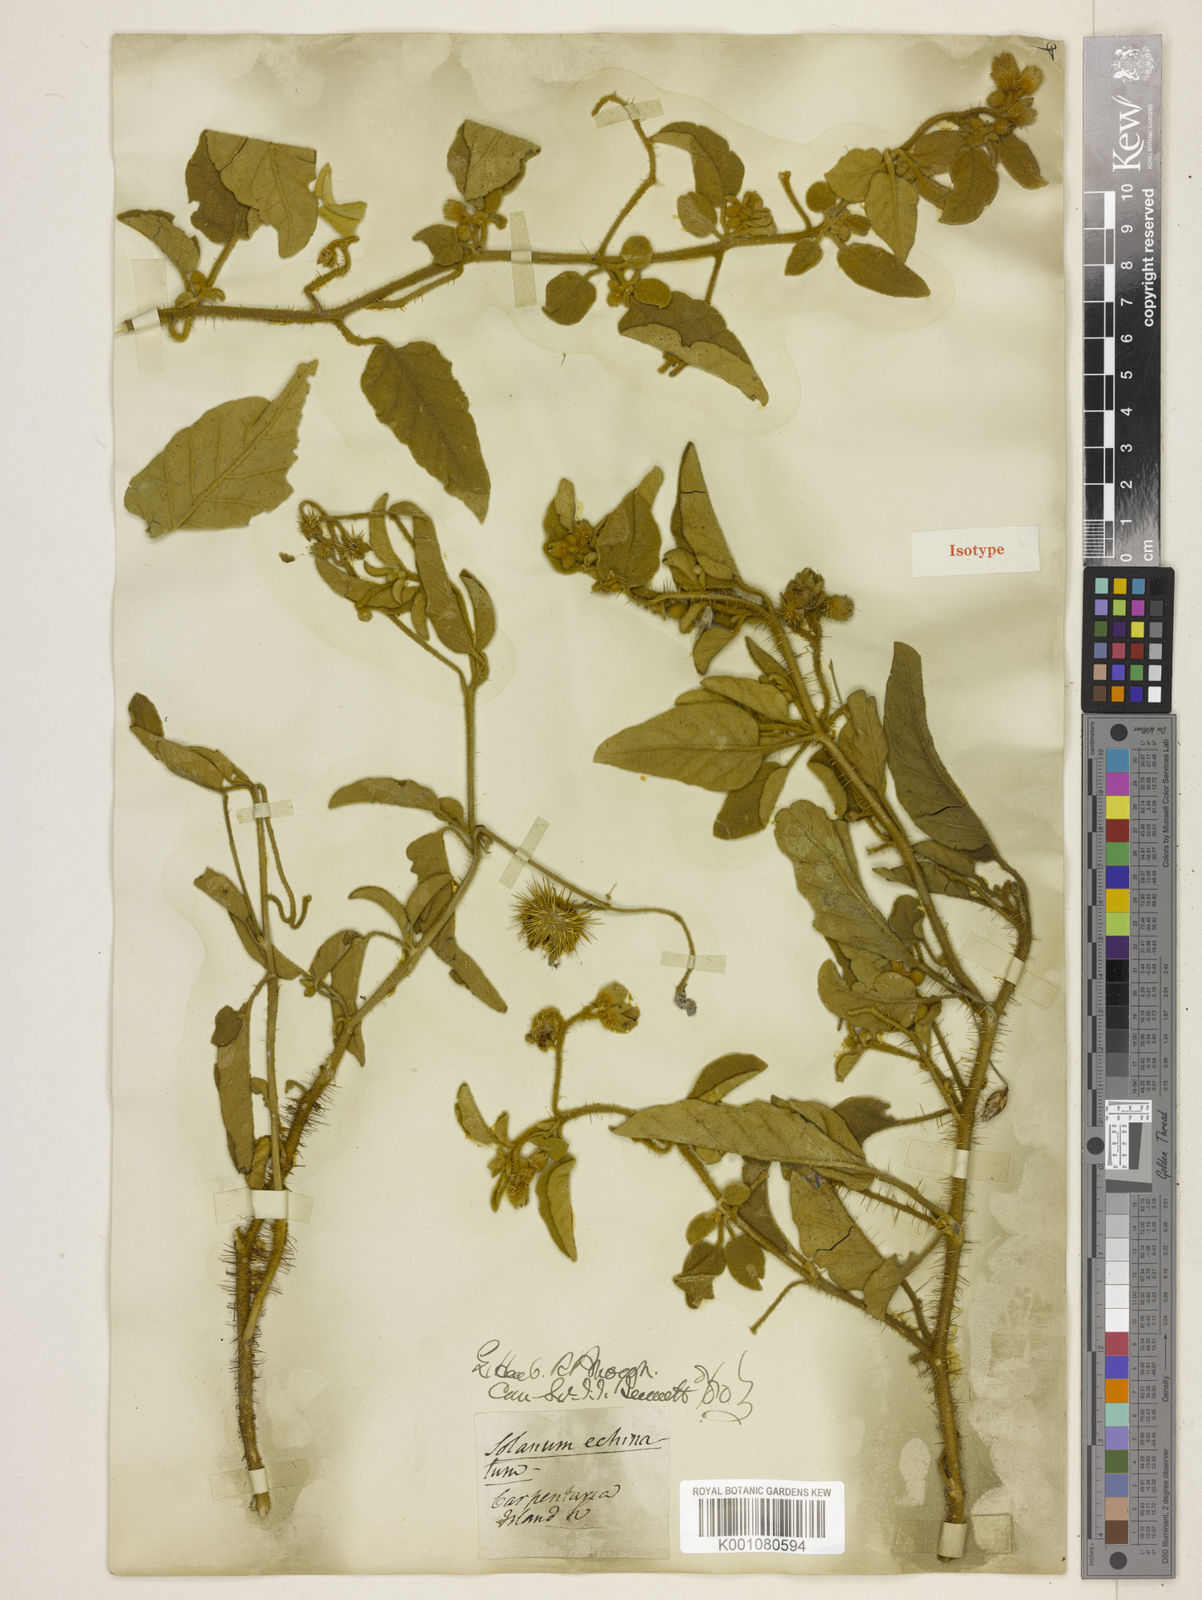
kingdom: Plantae
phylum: Tracheophyta
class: Magnoliopsida
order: Solanales
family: Solanaceae
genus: Solanum
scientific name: Solanum echinatum
